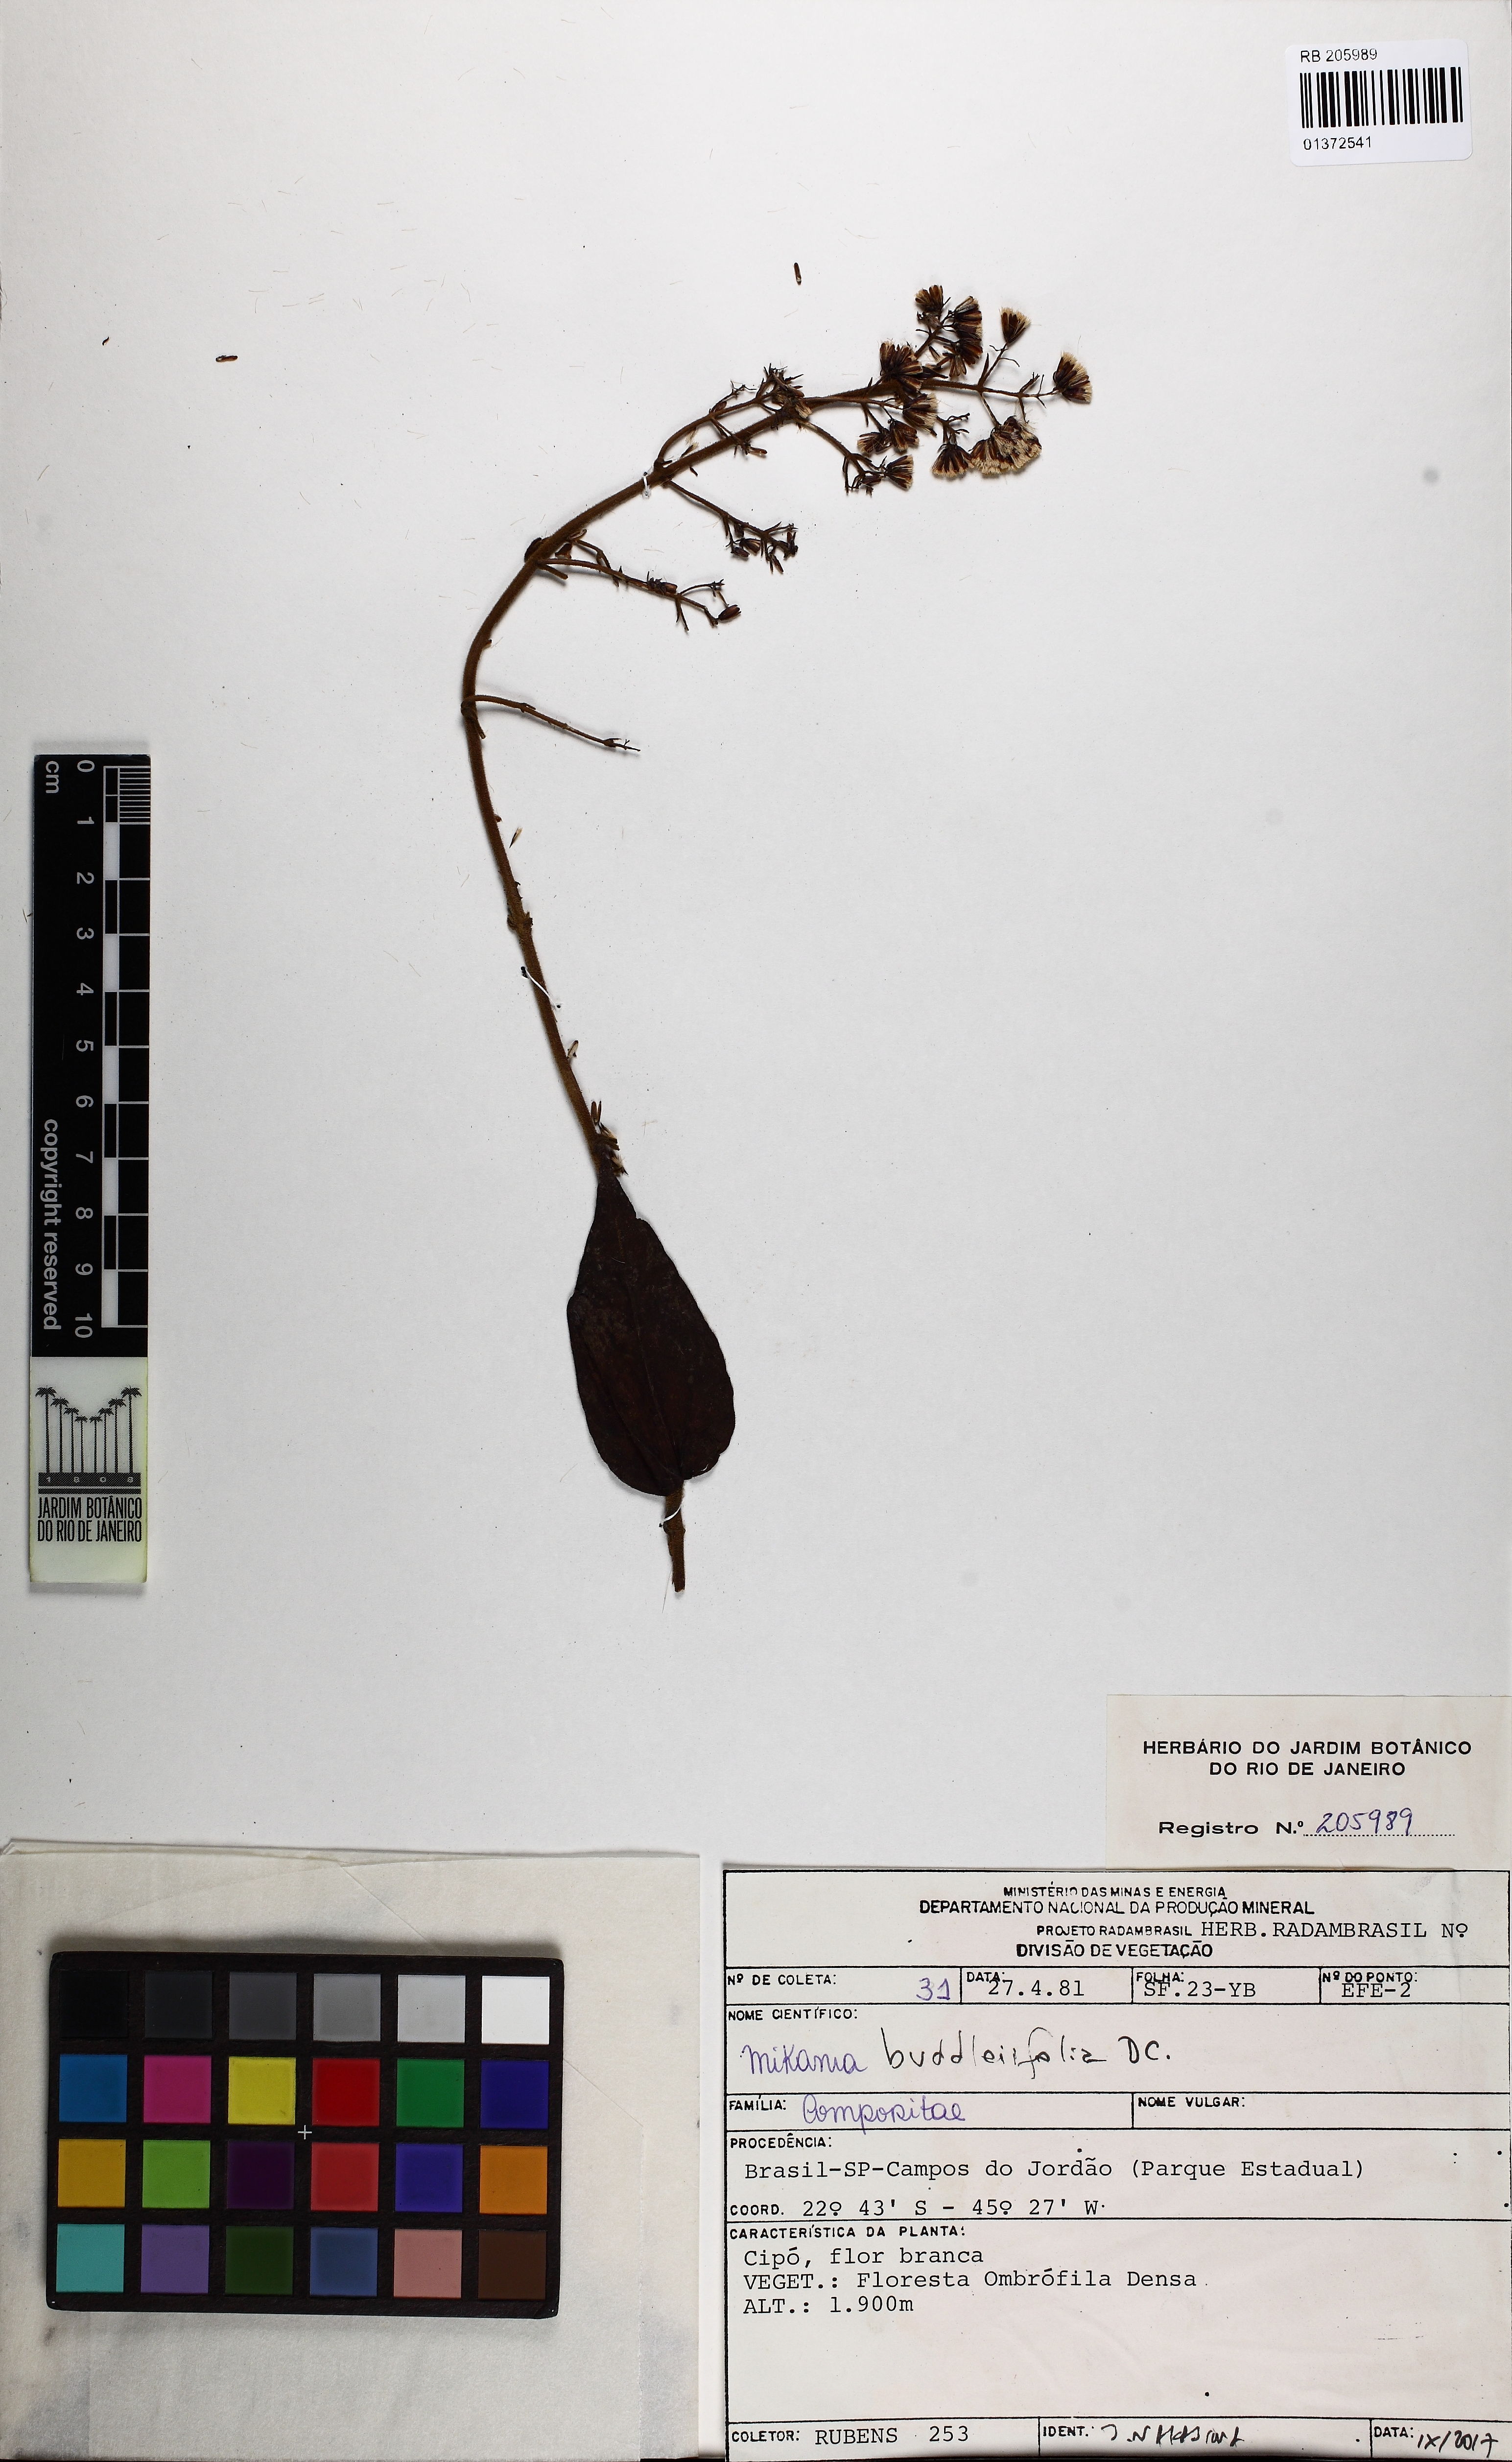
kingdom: Plantae
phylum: Tracheophyta
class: Magnoliopsida
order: Asterales
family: Asteraceae
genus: Mikania
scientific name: Mikania buddleiaefolia
